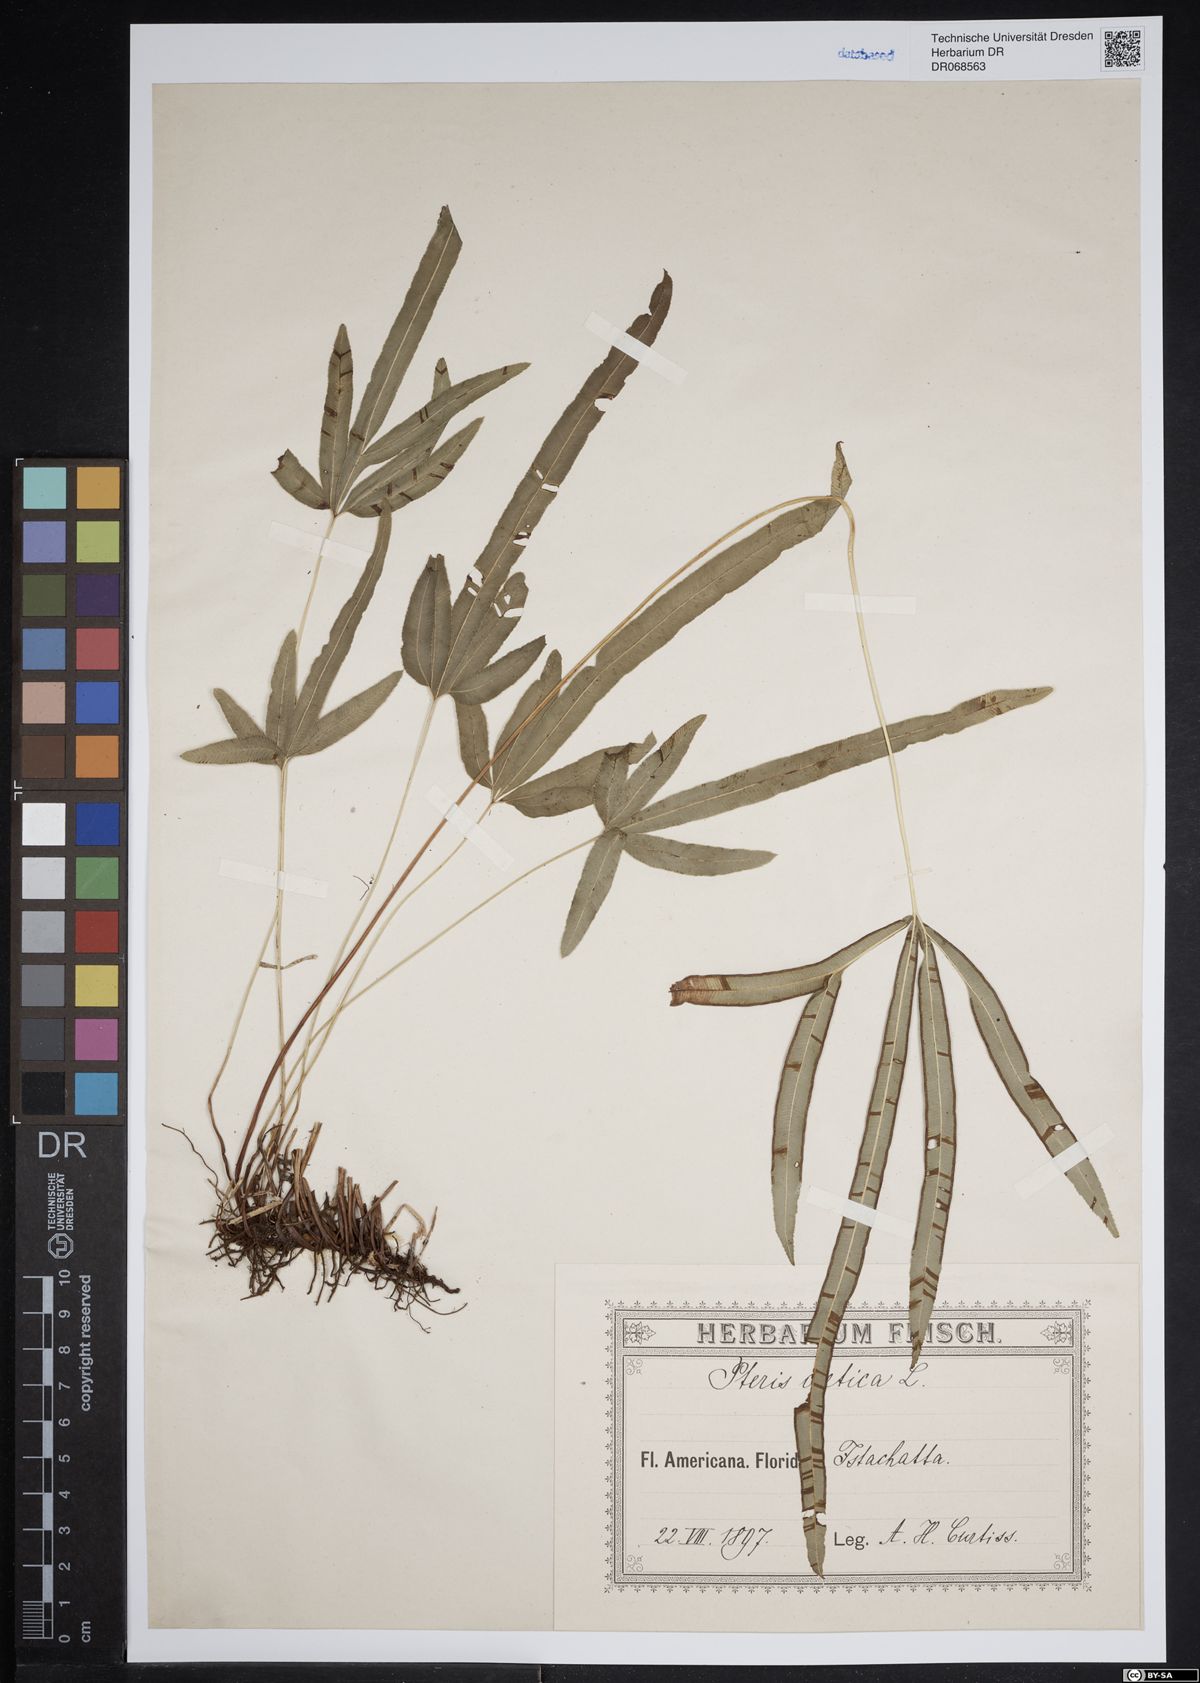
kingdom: Plantae
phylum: Tracheophyta
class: Polypodiopsida
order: Polypodiales
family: Pteridaceae
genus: Pteris
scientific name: Pteris cretica
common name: Ribbon fern
